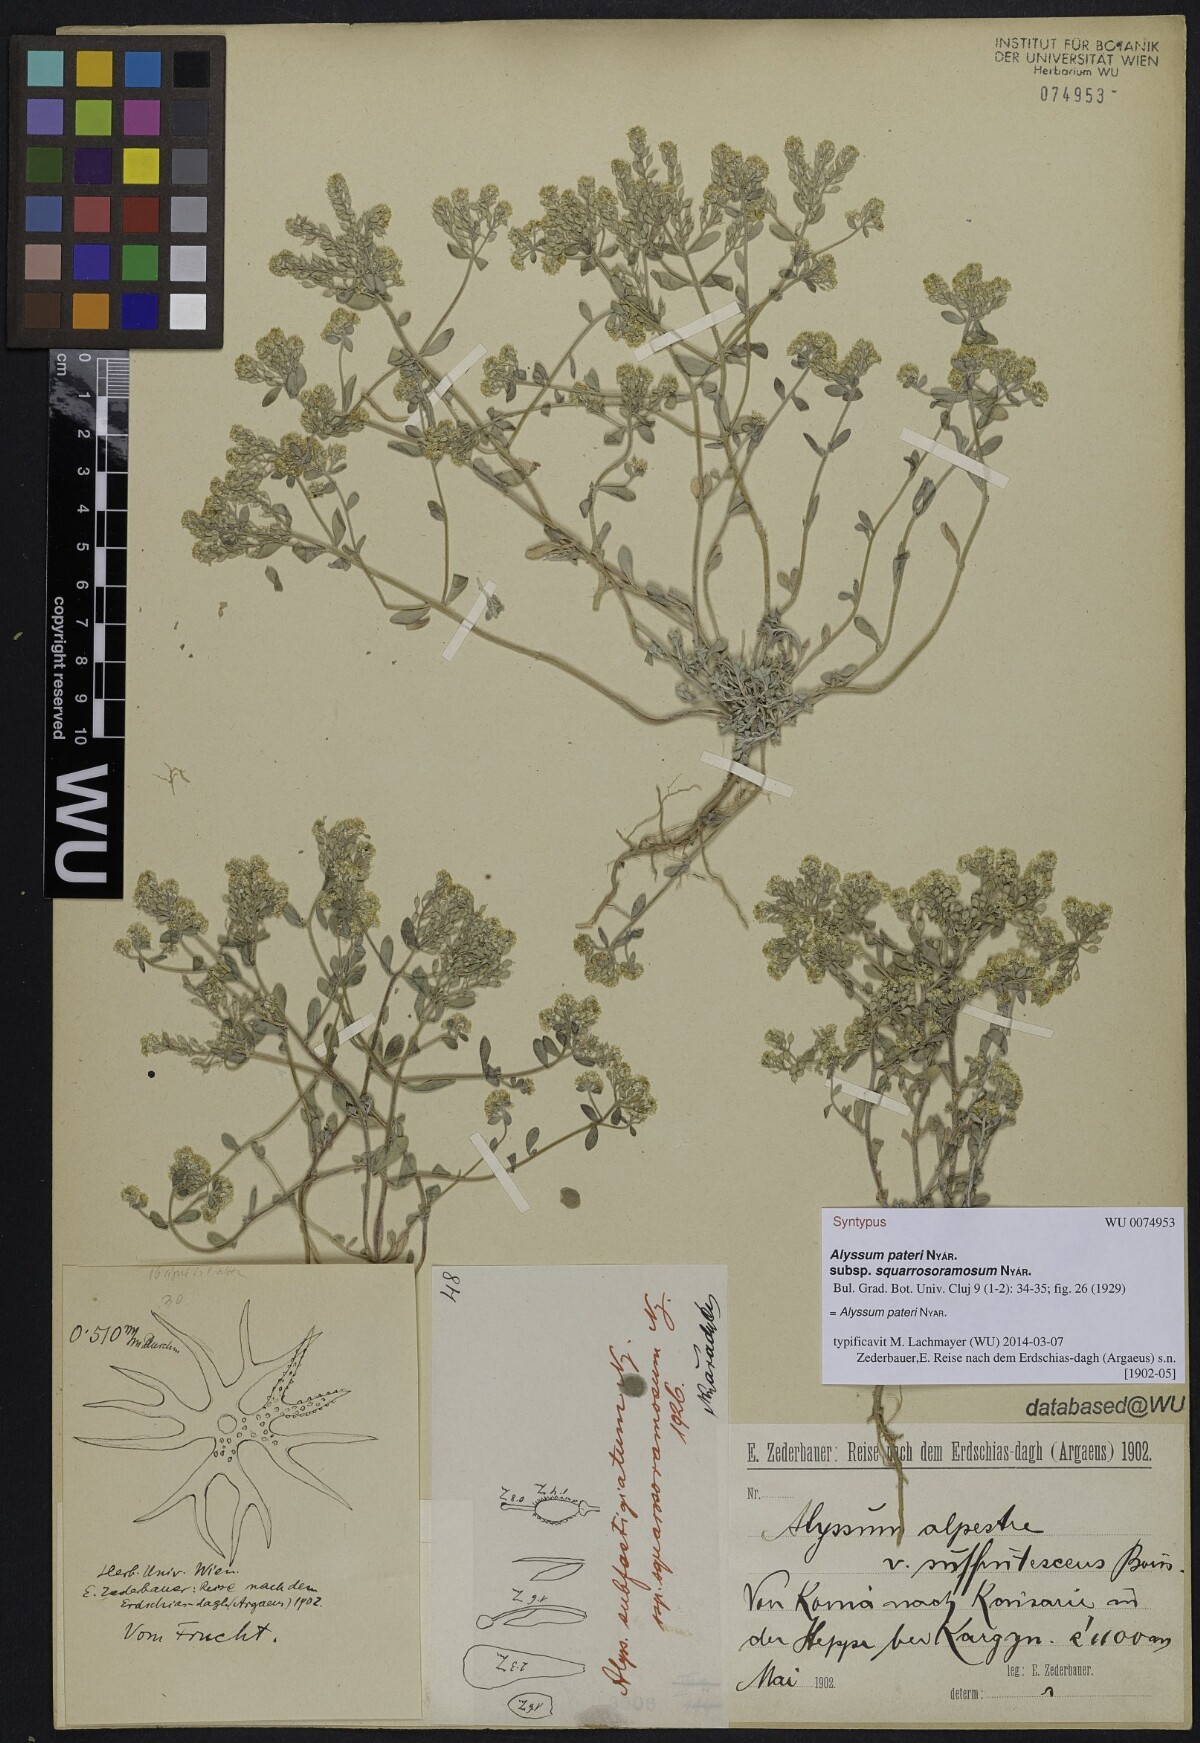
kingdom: Plantae
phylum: Tracheophyta
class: Magnoliopsida
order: Brassicales
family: Brassicaceae
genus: Odontarrhena
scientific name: Odontarrhena pateri
